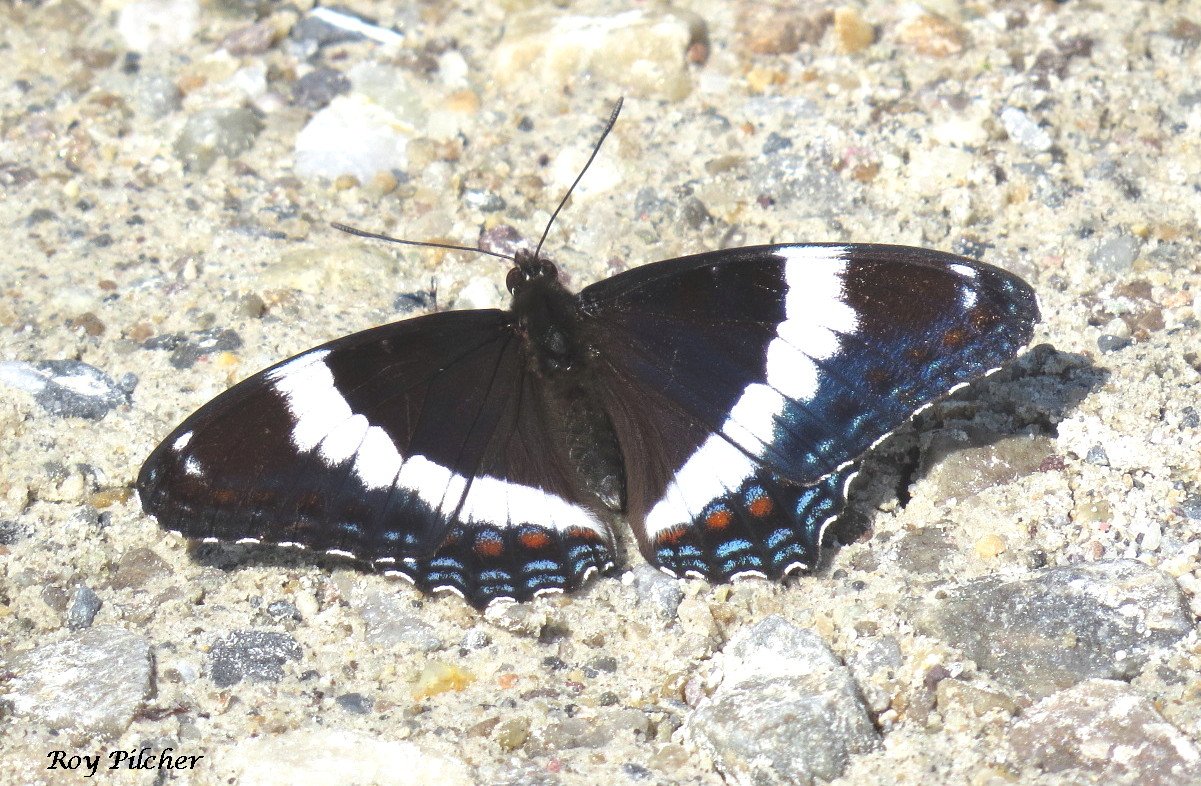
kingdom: Animalia
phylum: Arthropoda
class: Insecta
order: Lepidoptera
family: Nymphalidae
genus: Limenitis
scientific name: Limenitis
